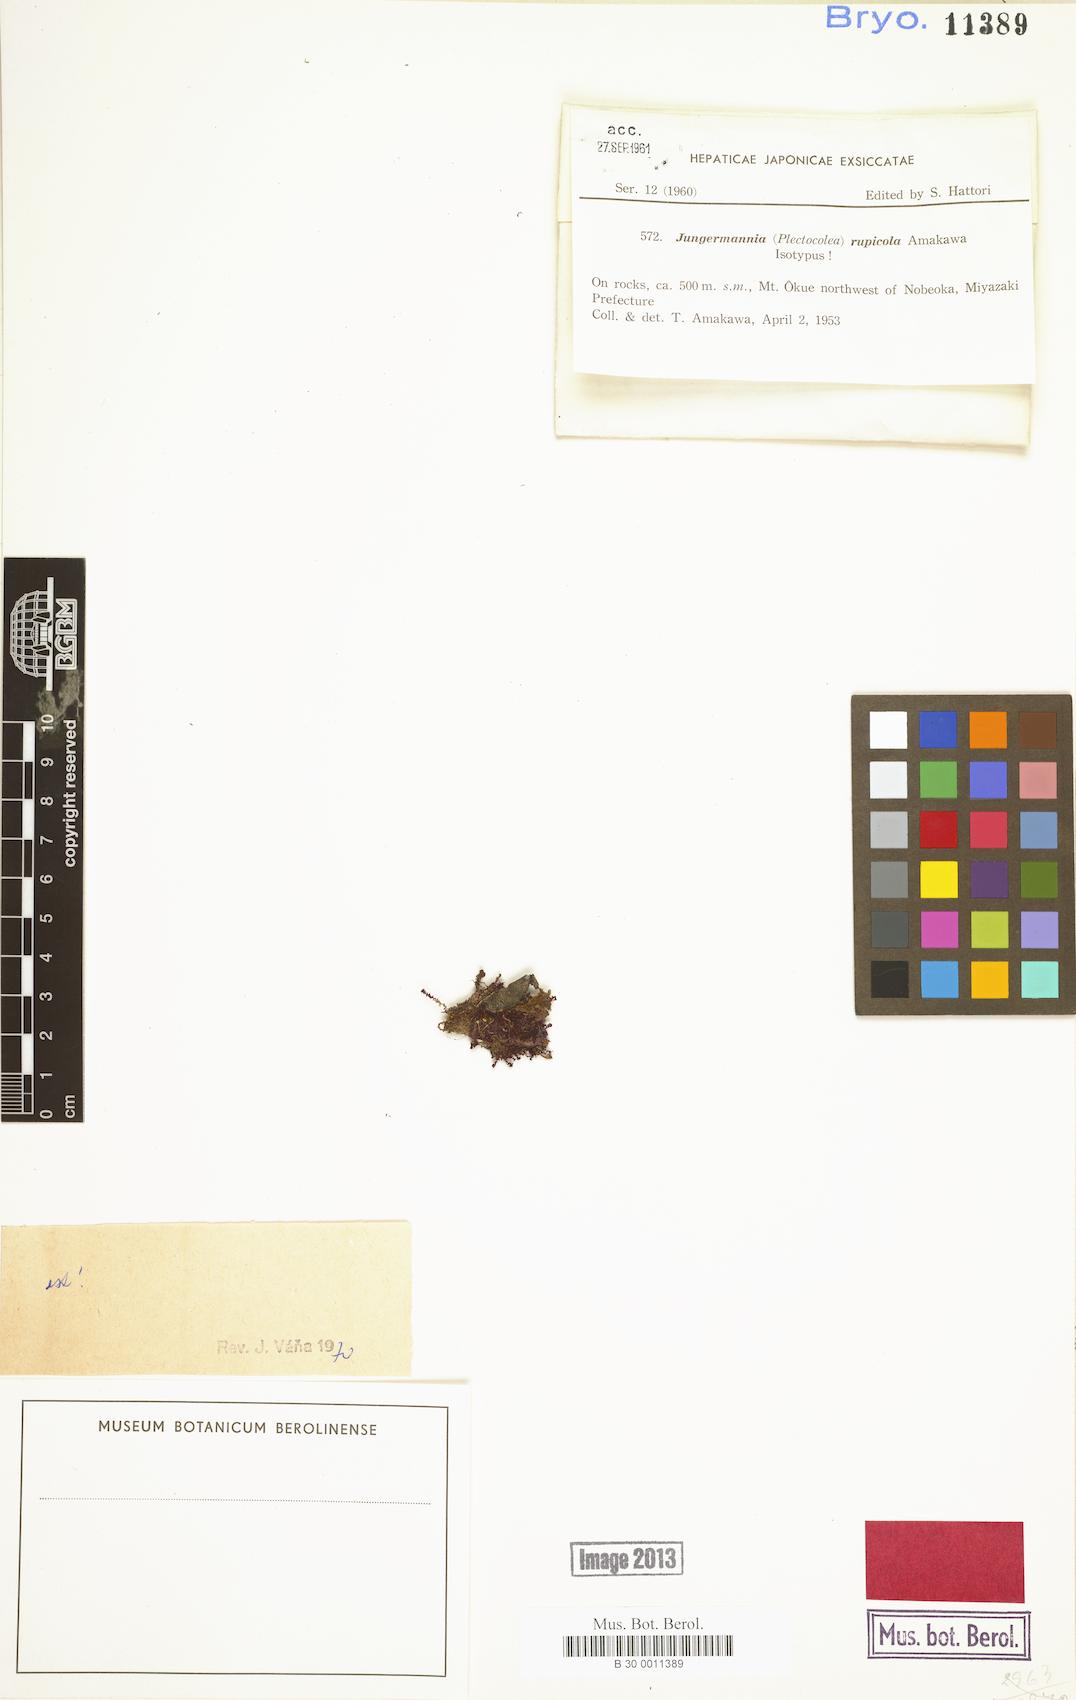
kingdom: Plantae
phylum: Marchantiophyta
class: Jungermanniopsida
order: Jungermanniales
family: Jungermanniaceae
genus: Jungermannia
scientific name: Jungermannia rupincola
